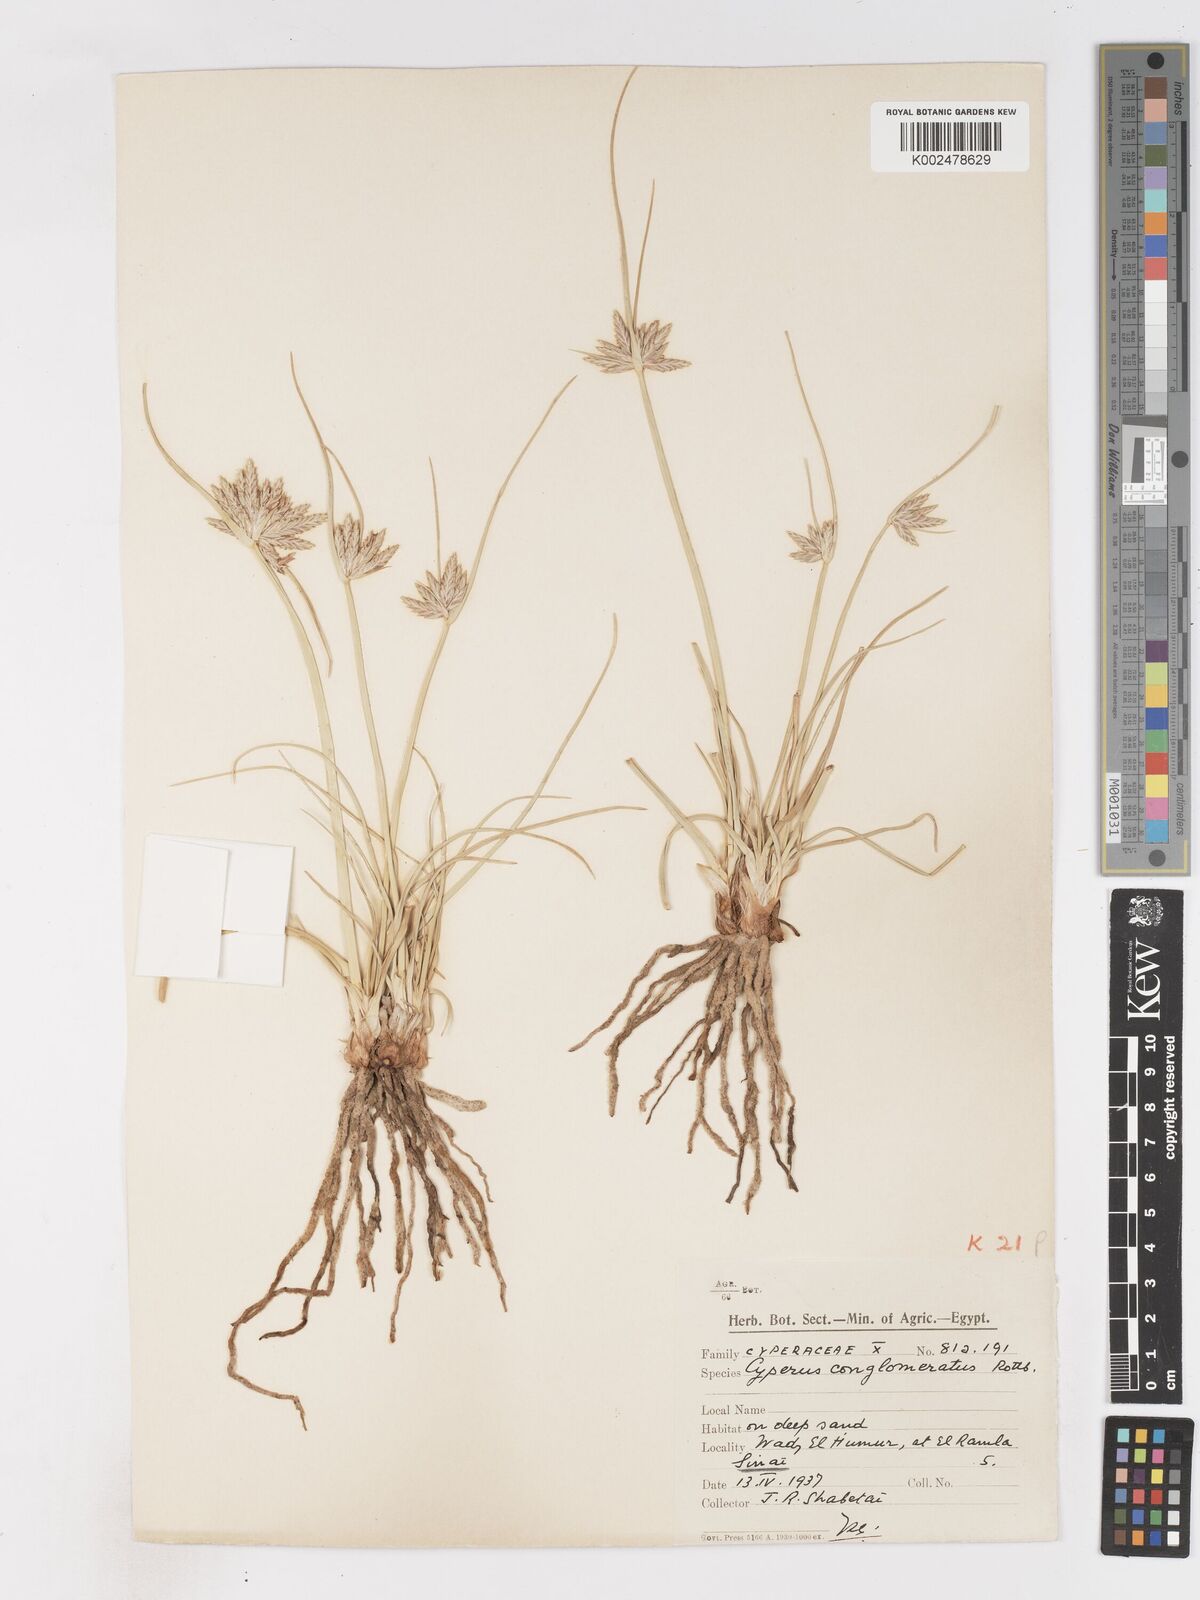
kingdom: Plantae
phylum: Tracheophyta
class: Liliopsida
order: Poales
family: Cyperaceae
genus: Cyperus
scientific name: Cyperus conglomeratus
